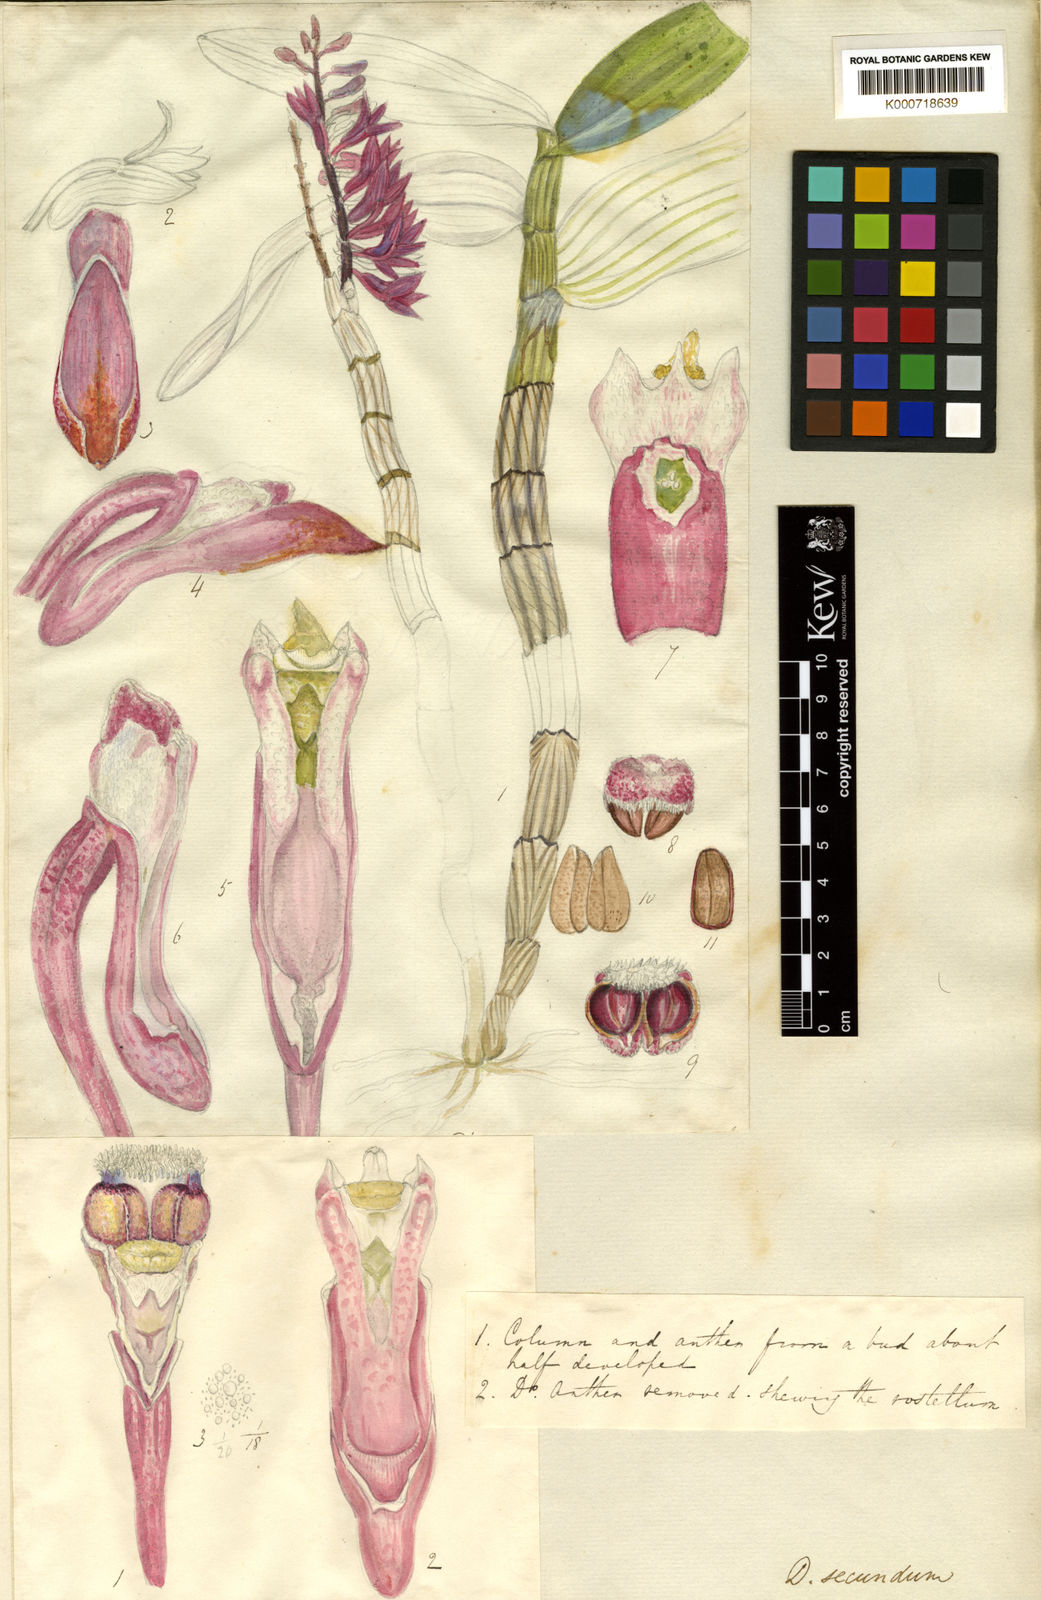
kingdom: Plantae
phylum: Tracheophyta
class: Liliopsida
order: Asparagales
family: Orchidaceae
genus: Dendrobium
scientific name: Dendrobium secundum
